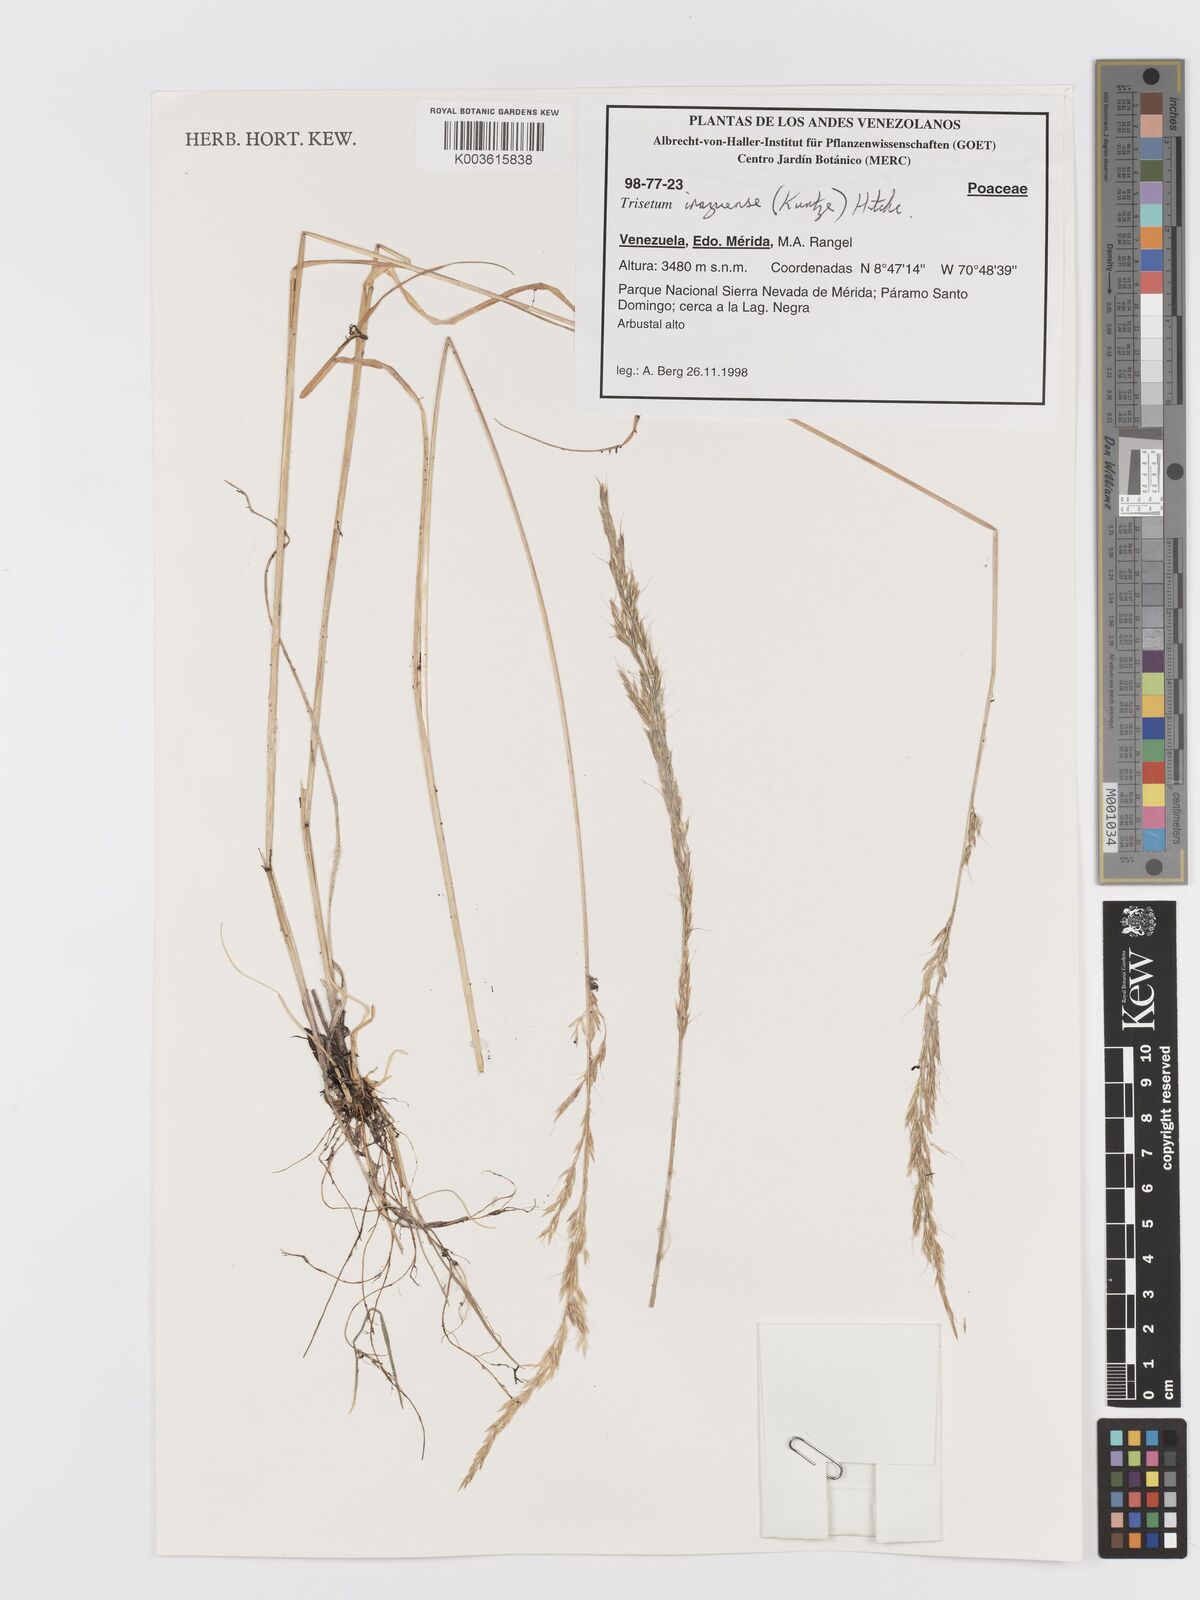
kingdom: Plantae
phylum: Tracheophyta
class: Liliopsida
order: Poales
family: Poaceae
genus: Peyritschia
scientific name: Peyritschia irazuensis
